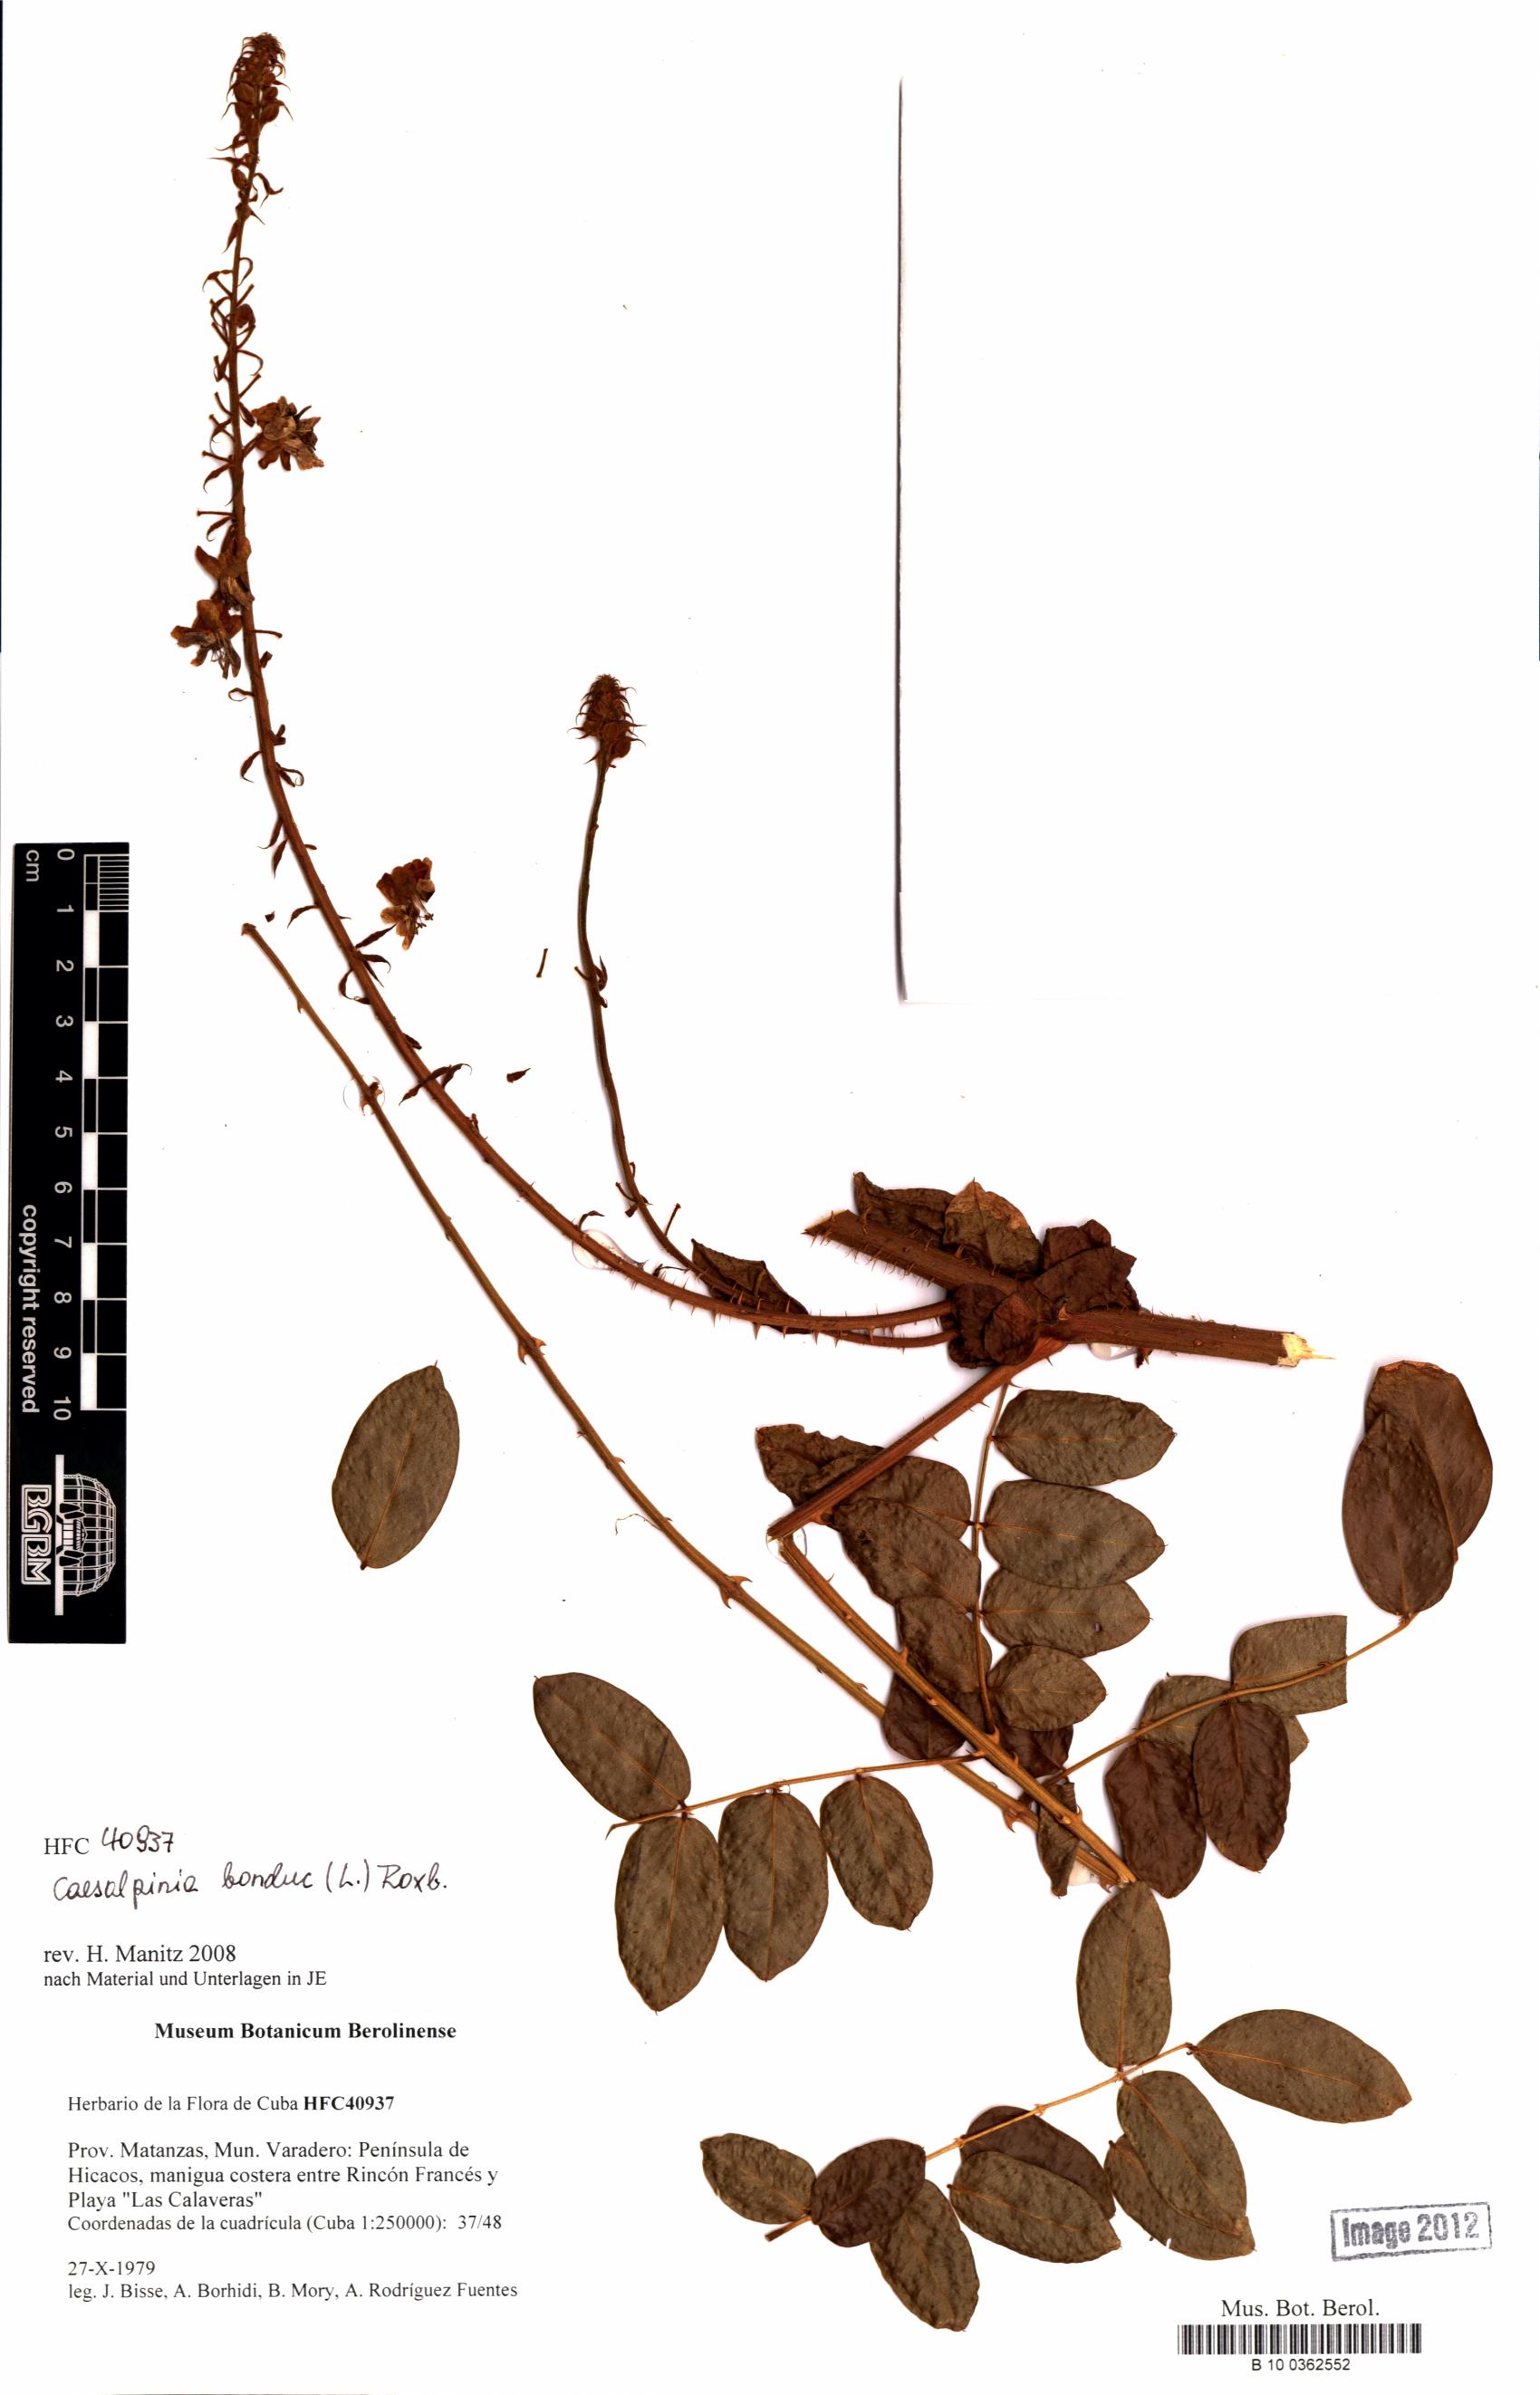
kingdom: Plantae
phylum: Tracheophyta
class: Magnoliopsida
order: Fabales
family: Fabaceae
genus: Guilandina
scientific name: Guilandina bonduc
